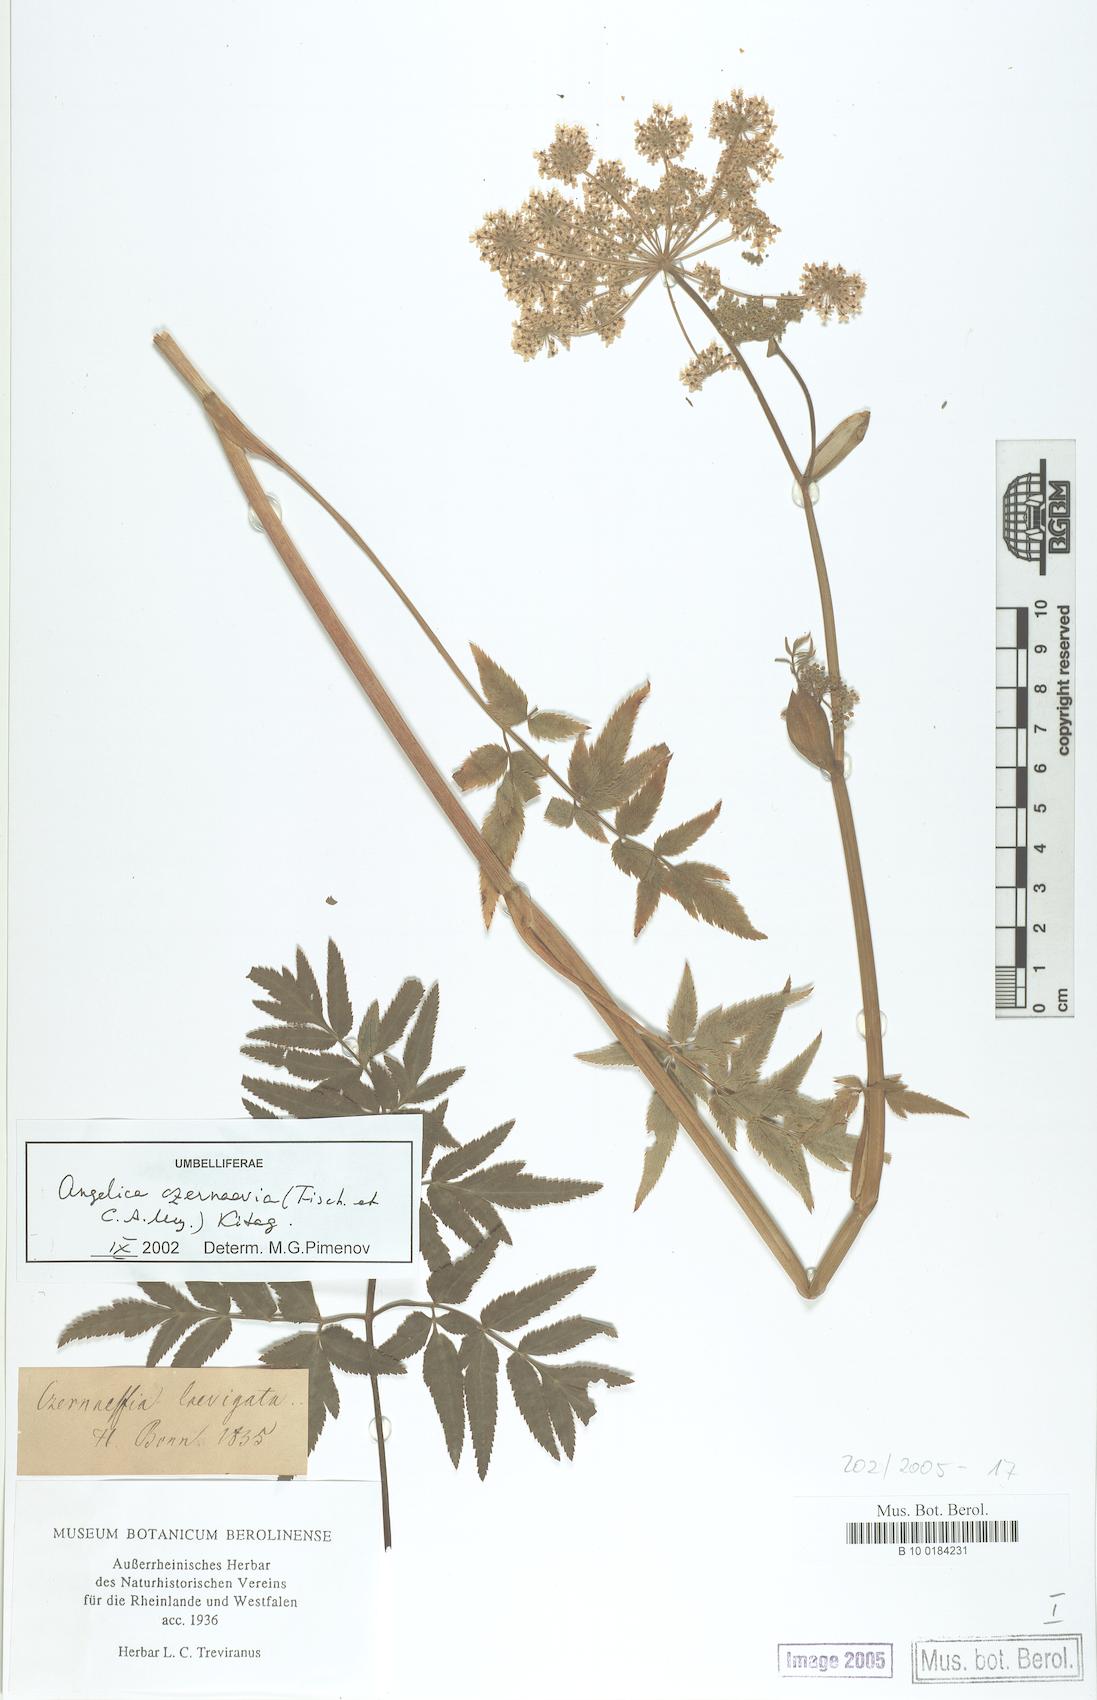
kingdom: Plantae
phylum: Tracheophyta
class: Magnoliopsida
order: Apiales
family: Apiaceae
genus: Angelica
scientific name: Angelica czernaevia
